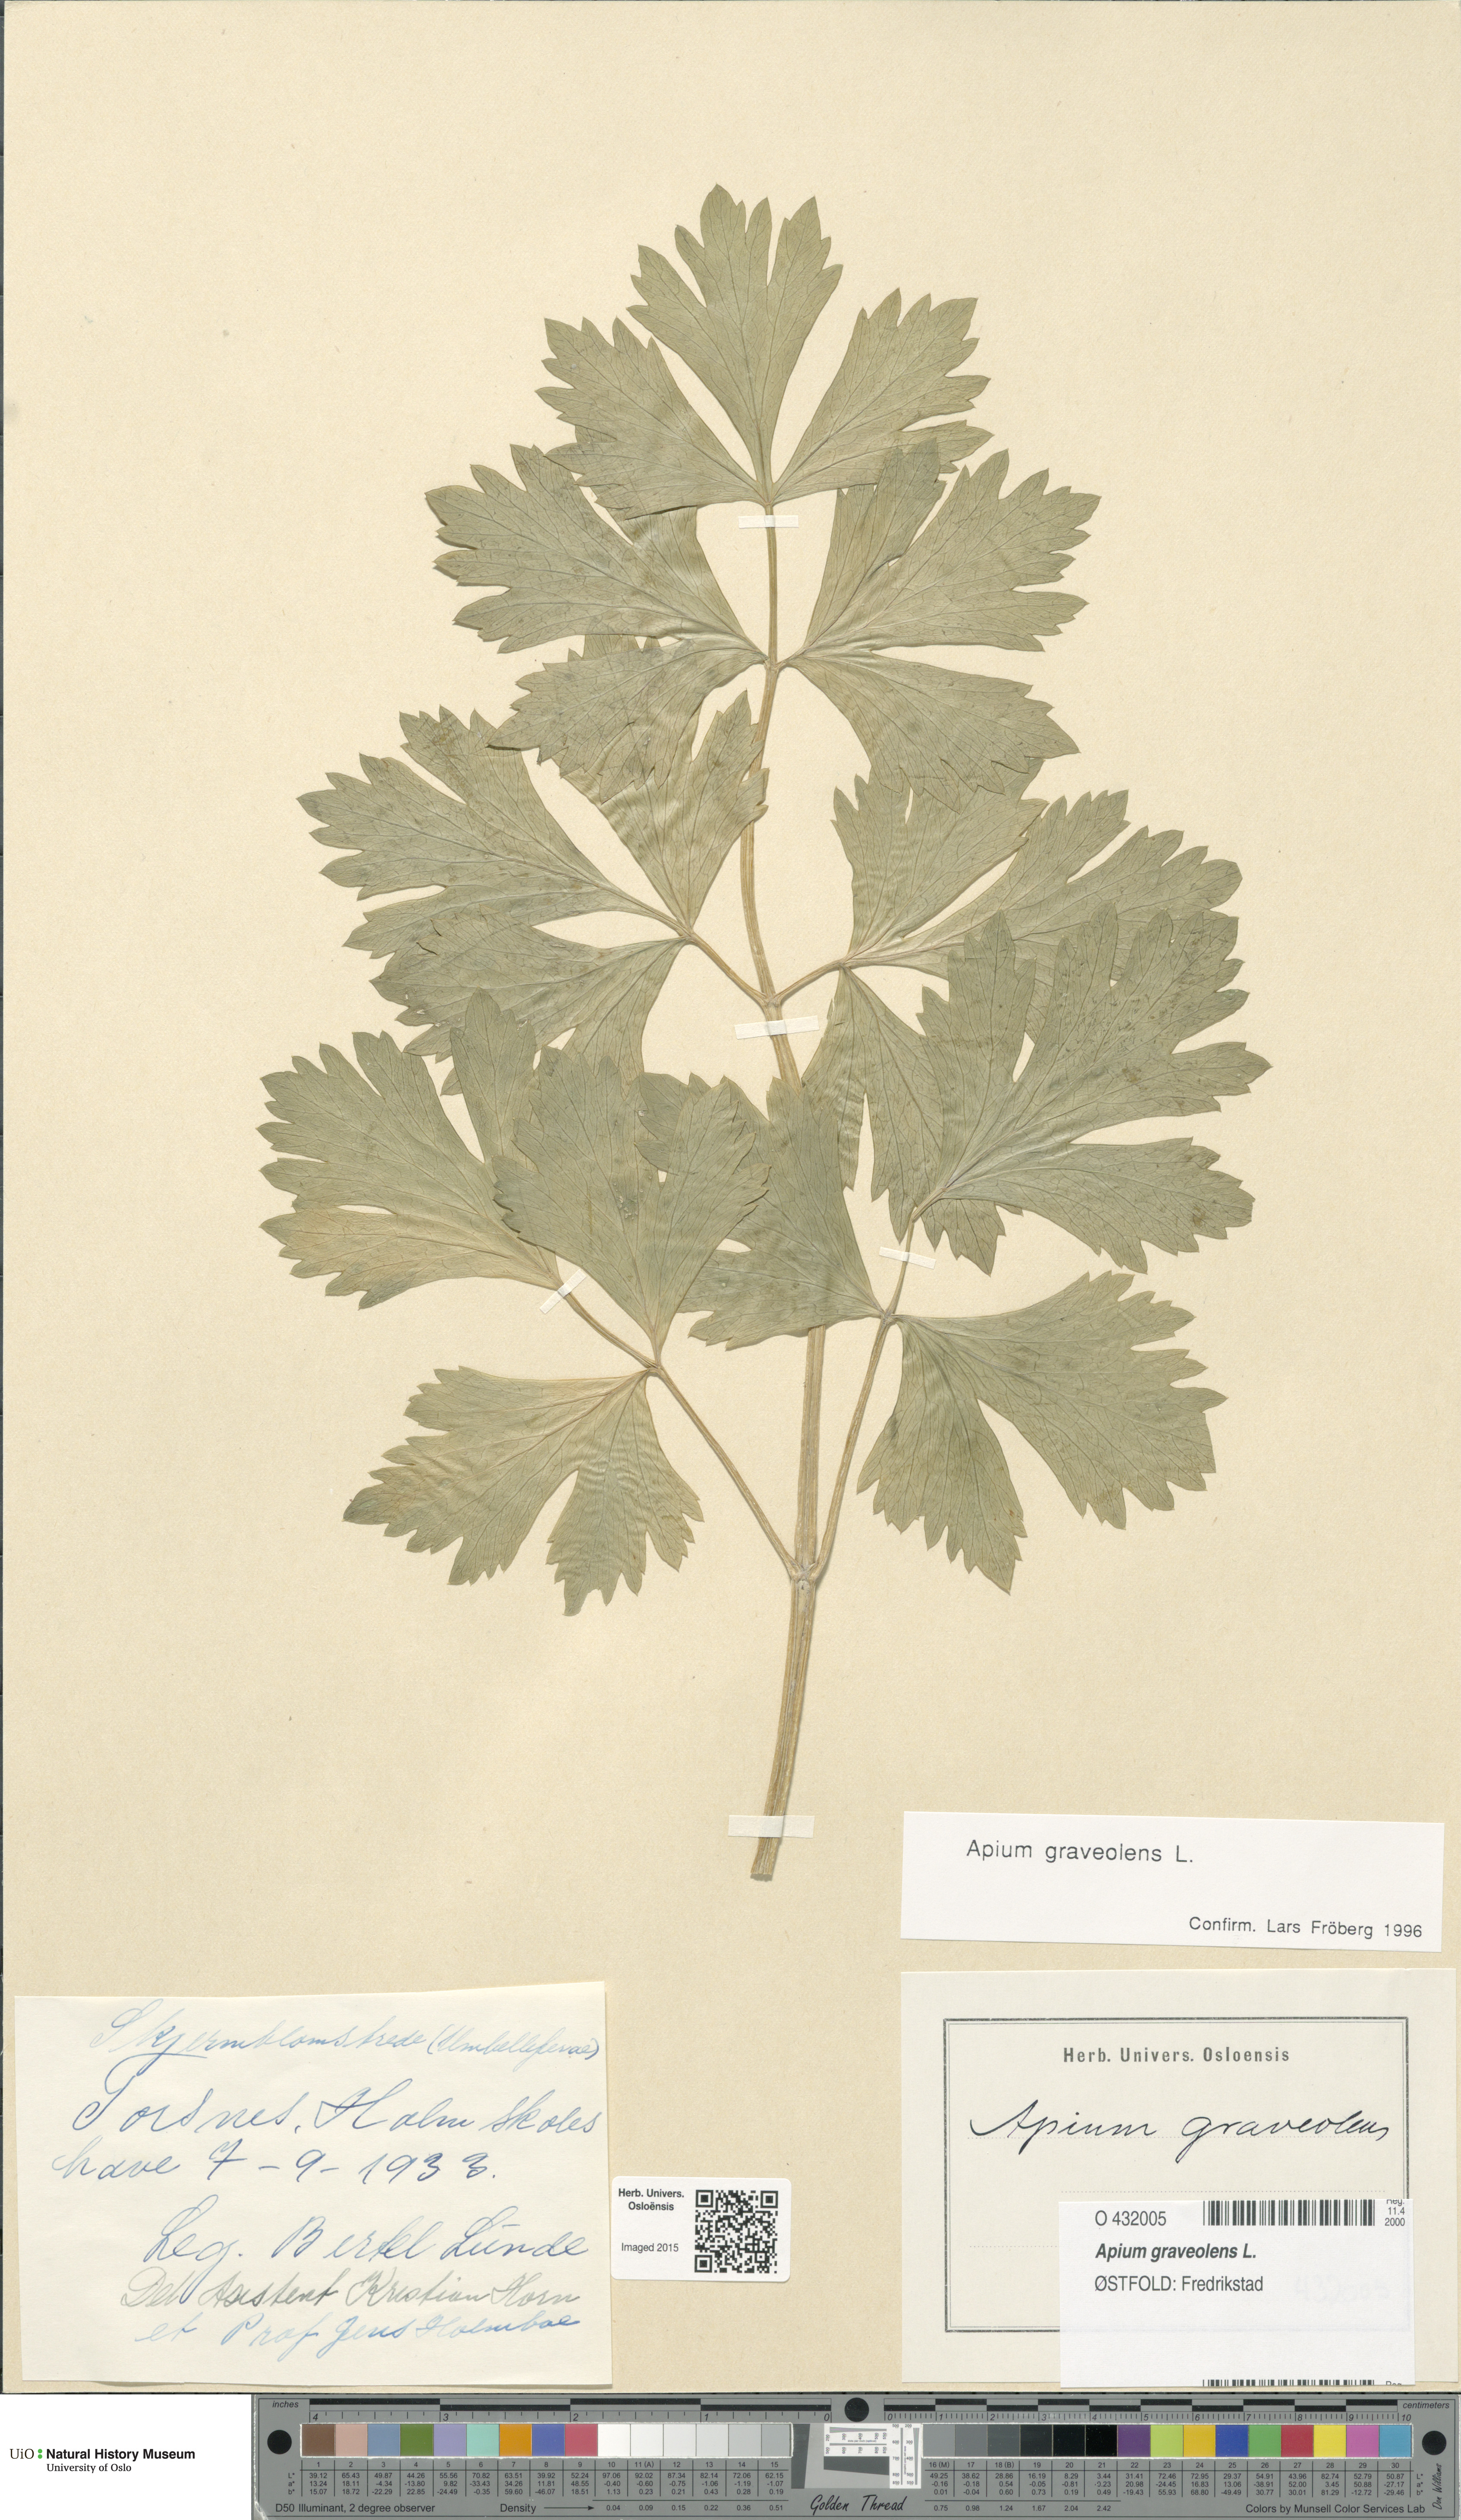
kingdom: Plantae
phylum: Tracheophyta
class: Magnoliopsida
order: Apiales
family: Apiaceae
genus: Apium
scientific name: Apium graveolens
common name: Wild celery
